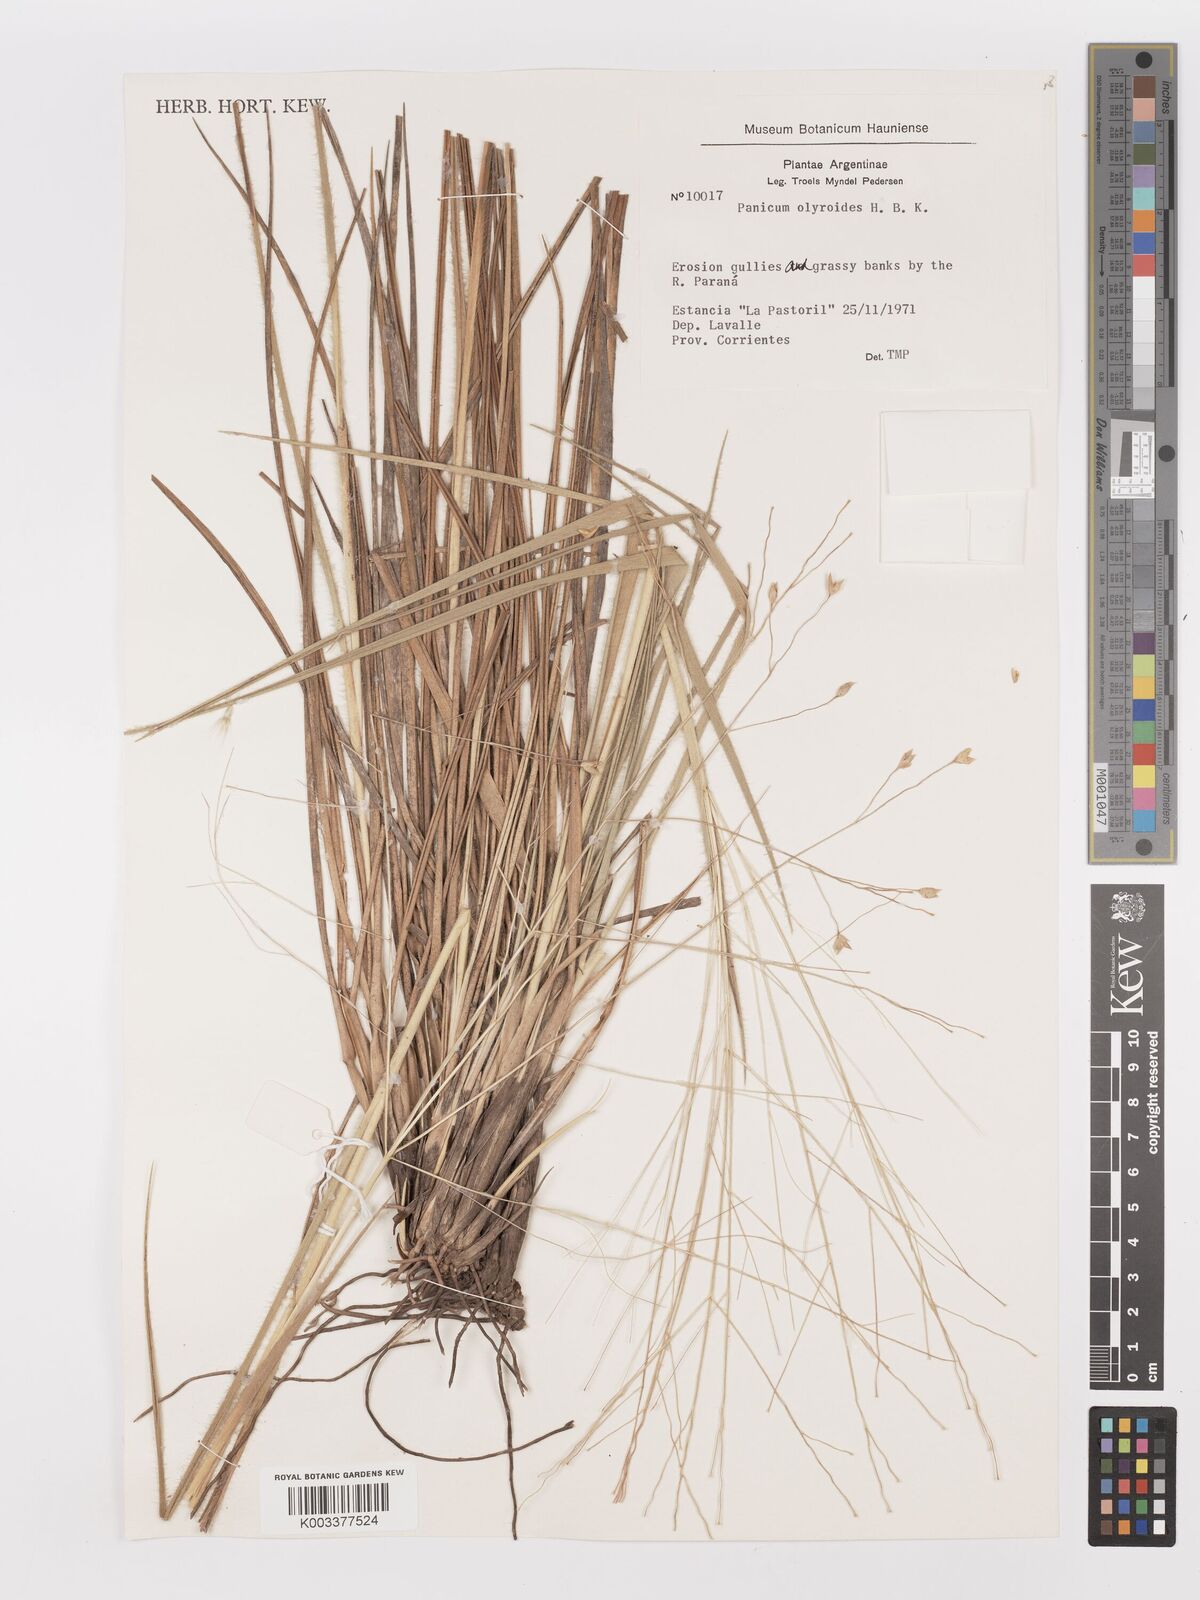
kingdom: Plantae
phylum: Tracheophyta
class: Liliopsida
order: Poales
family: Poaceae
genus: Panicum
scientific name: Panicum olyroides
